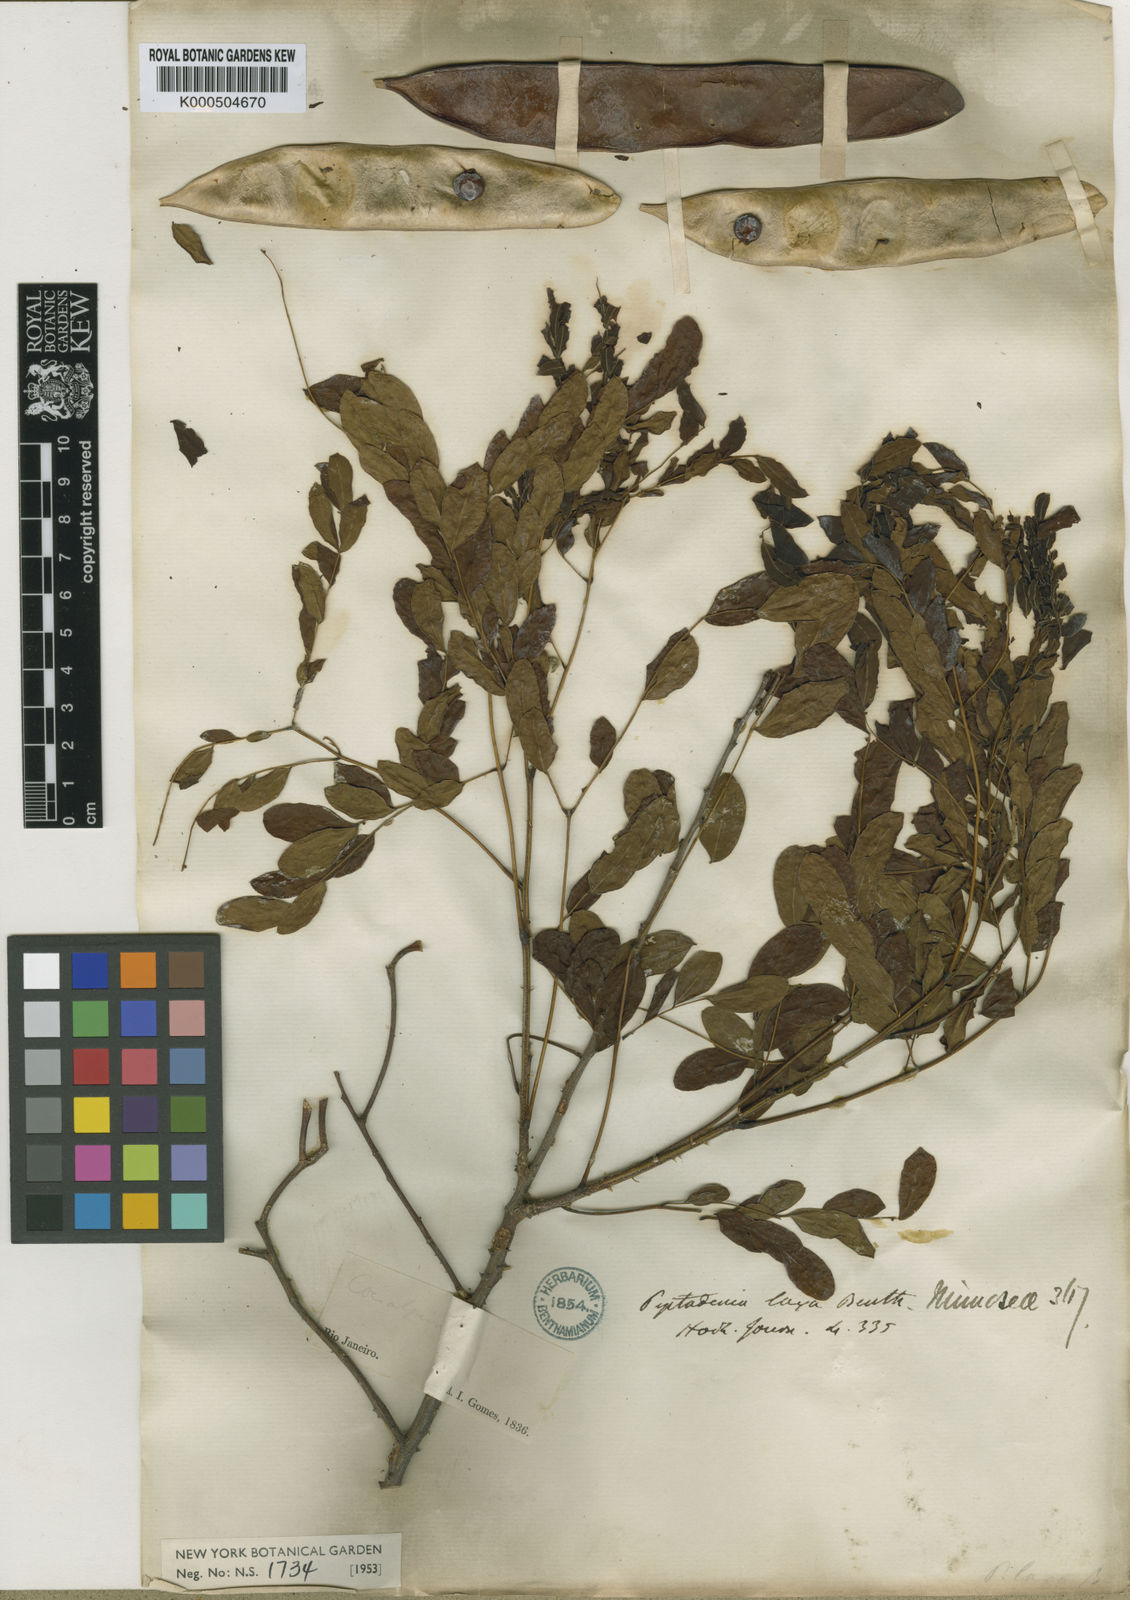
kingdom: Plantae
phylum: Tracheophyta
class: Magnoliopsida
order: Fabales
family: Fabaceae
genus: Piptadenia
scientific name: Piptadenia adiantoides
